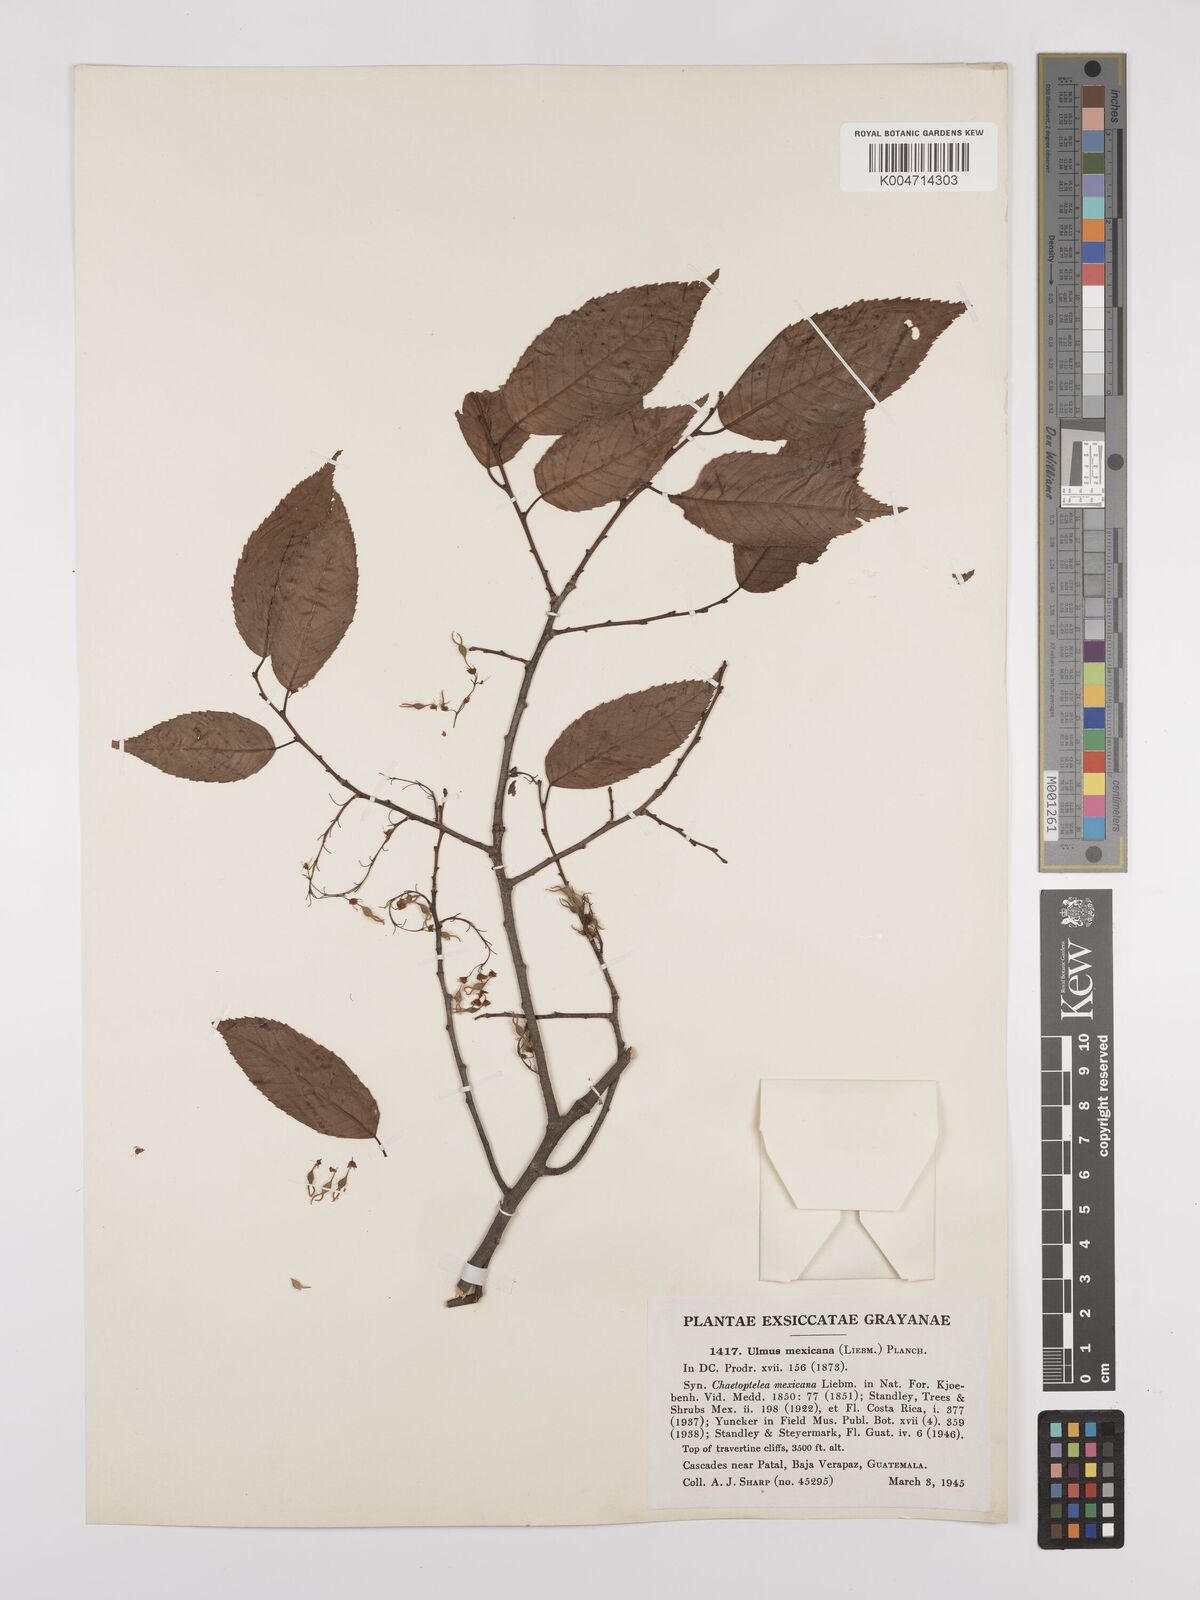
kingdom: Plantae
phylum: Tracheophyta
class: Magnoliopsida
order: Rosales
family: Ulmaceae
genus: Ulmus
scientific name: Ulmus mexicana
